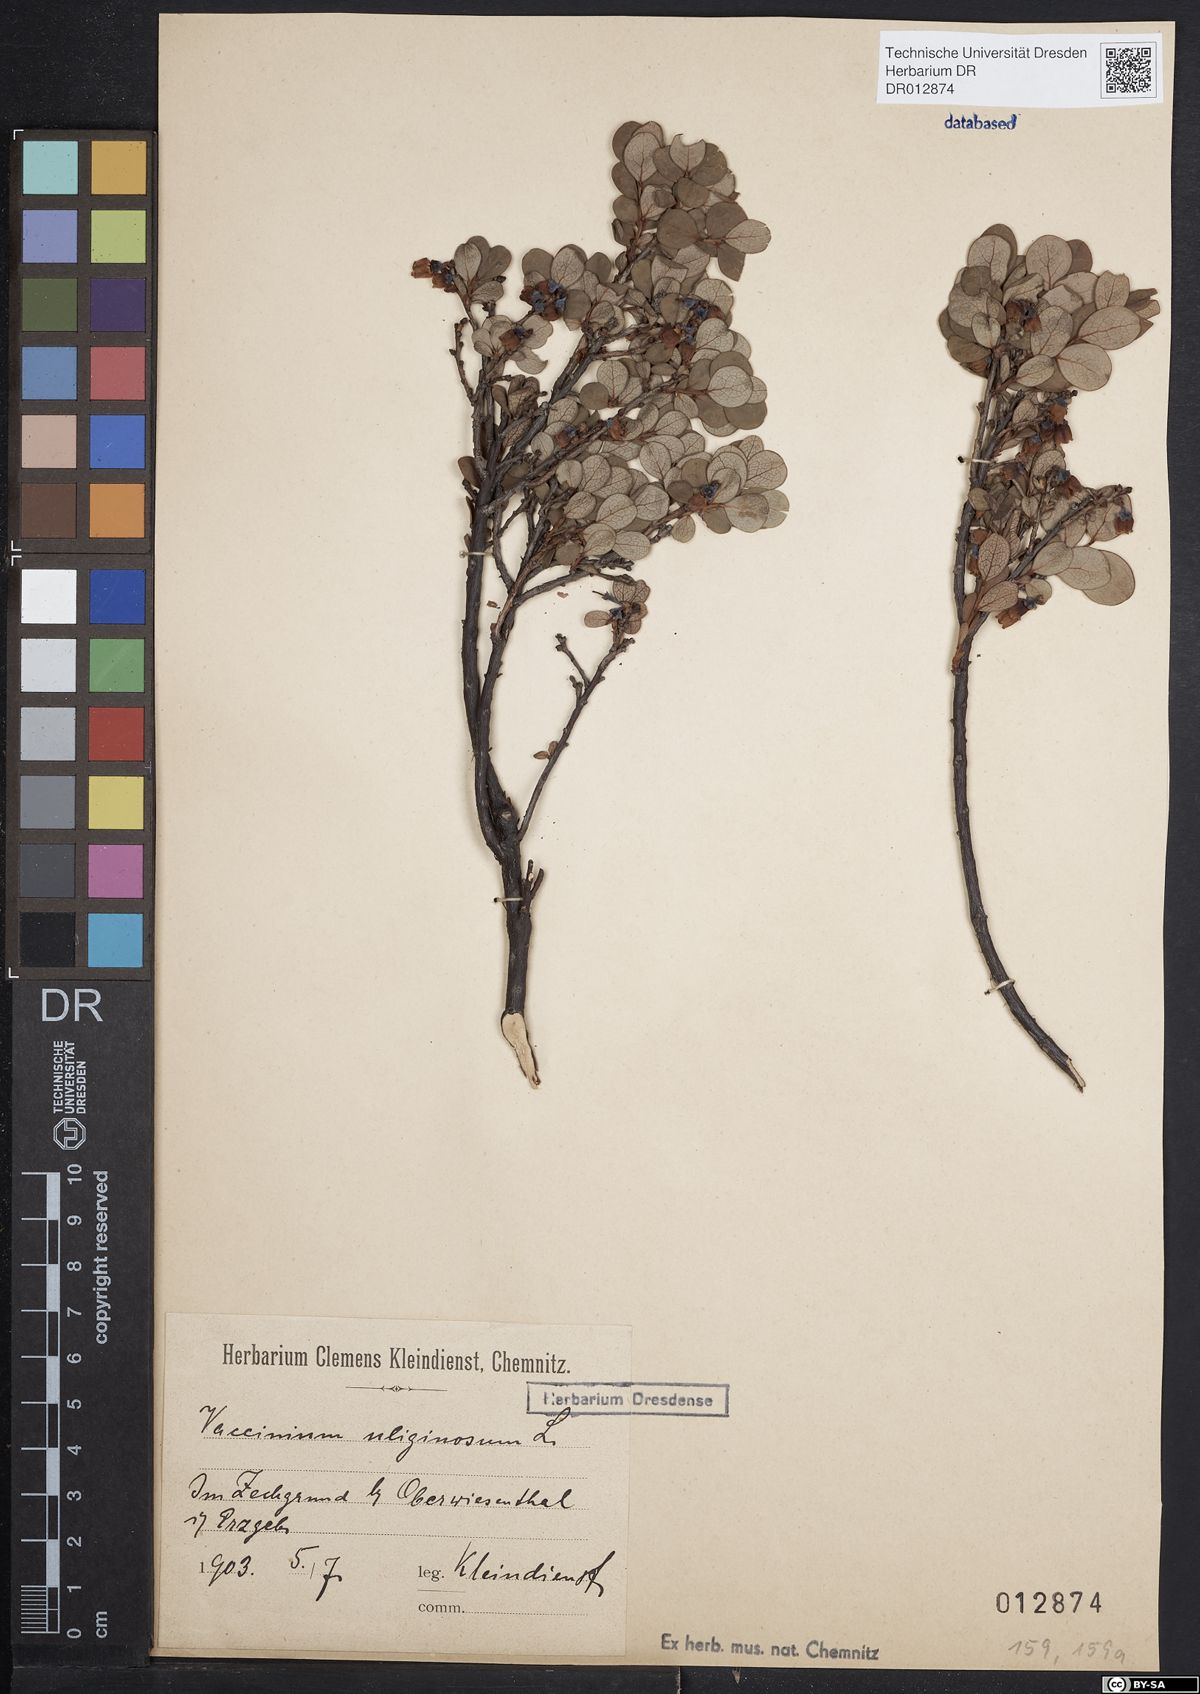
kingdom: Plantae
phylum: Tracheophyta
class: Magnoliopsida
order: Ericales
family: Ericaceae
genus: Vaccinium
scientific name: Vaccinium uliginosum
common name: Bog bilberry
